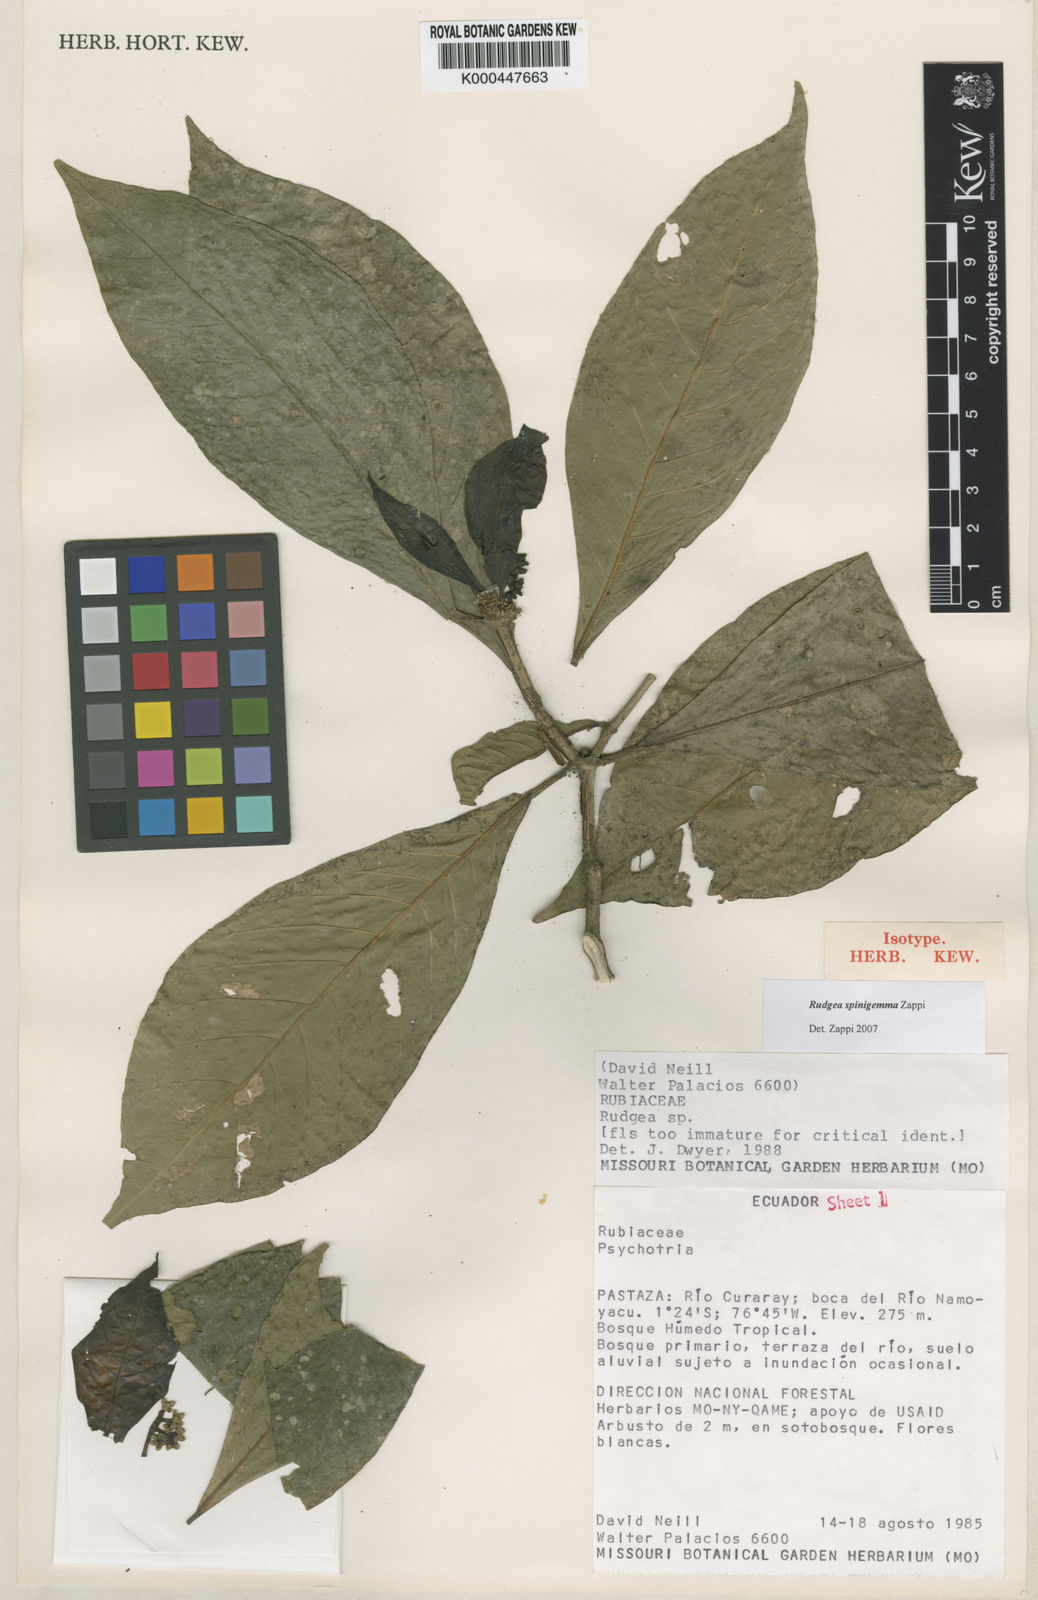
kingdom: Plantae
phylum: Tracheophyta
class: Magnoliopsida
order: Gentianales
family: Rubiaceae
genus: Rudgea
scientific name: Rudgea spinigemma
